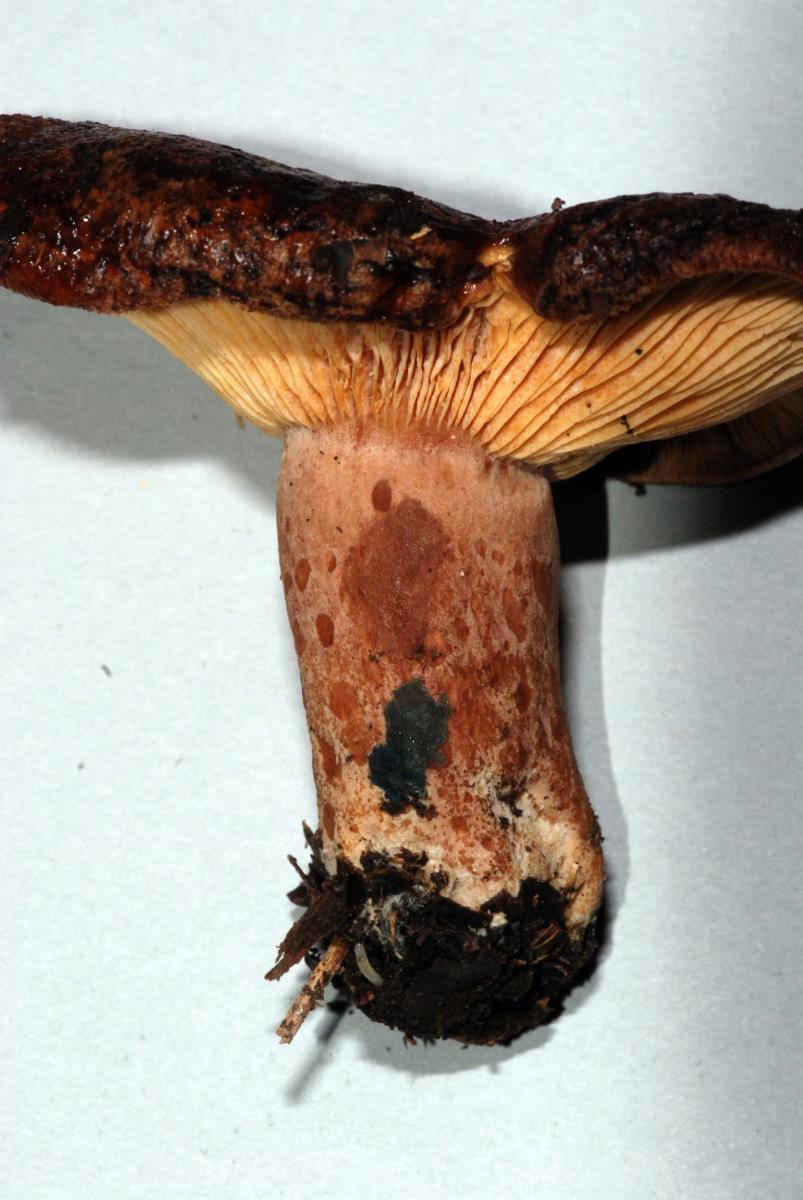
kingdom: Fungi
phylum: Basidiomycota
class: Agaricomycetes
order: Russulales
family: Russulaceae
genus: Lactarius
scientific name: Lactarius tawai
